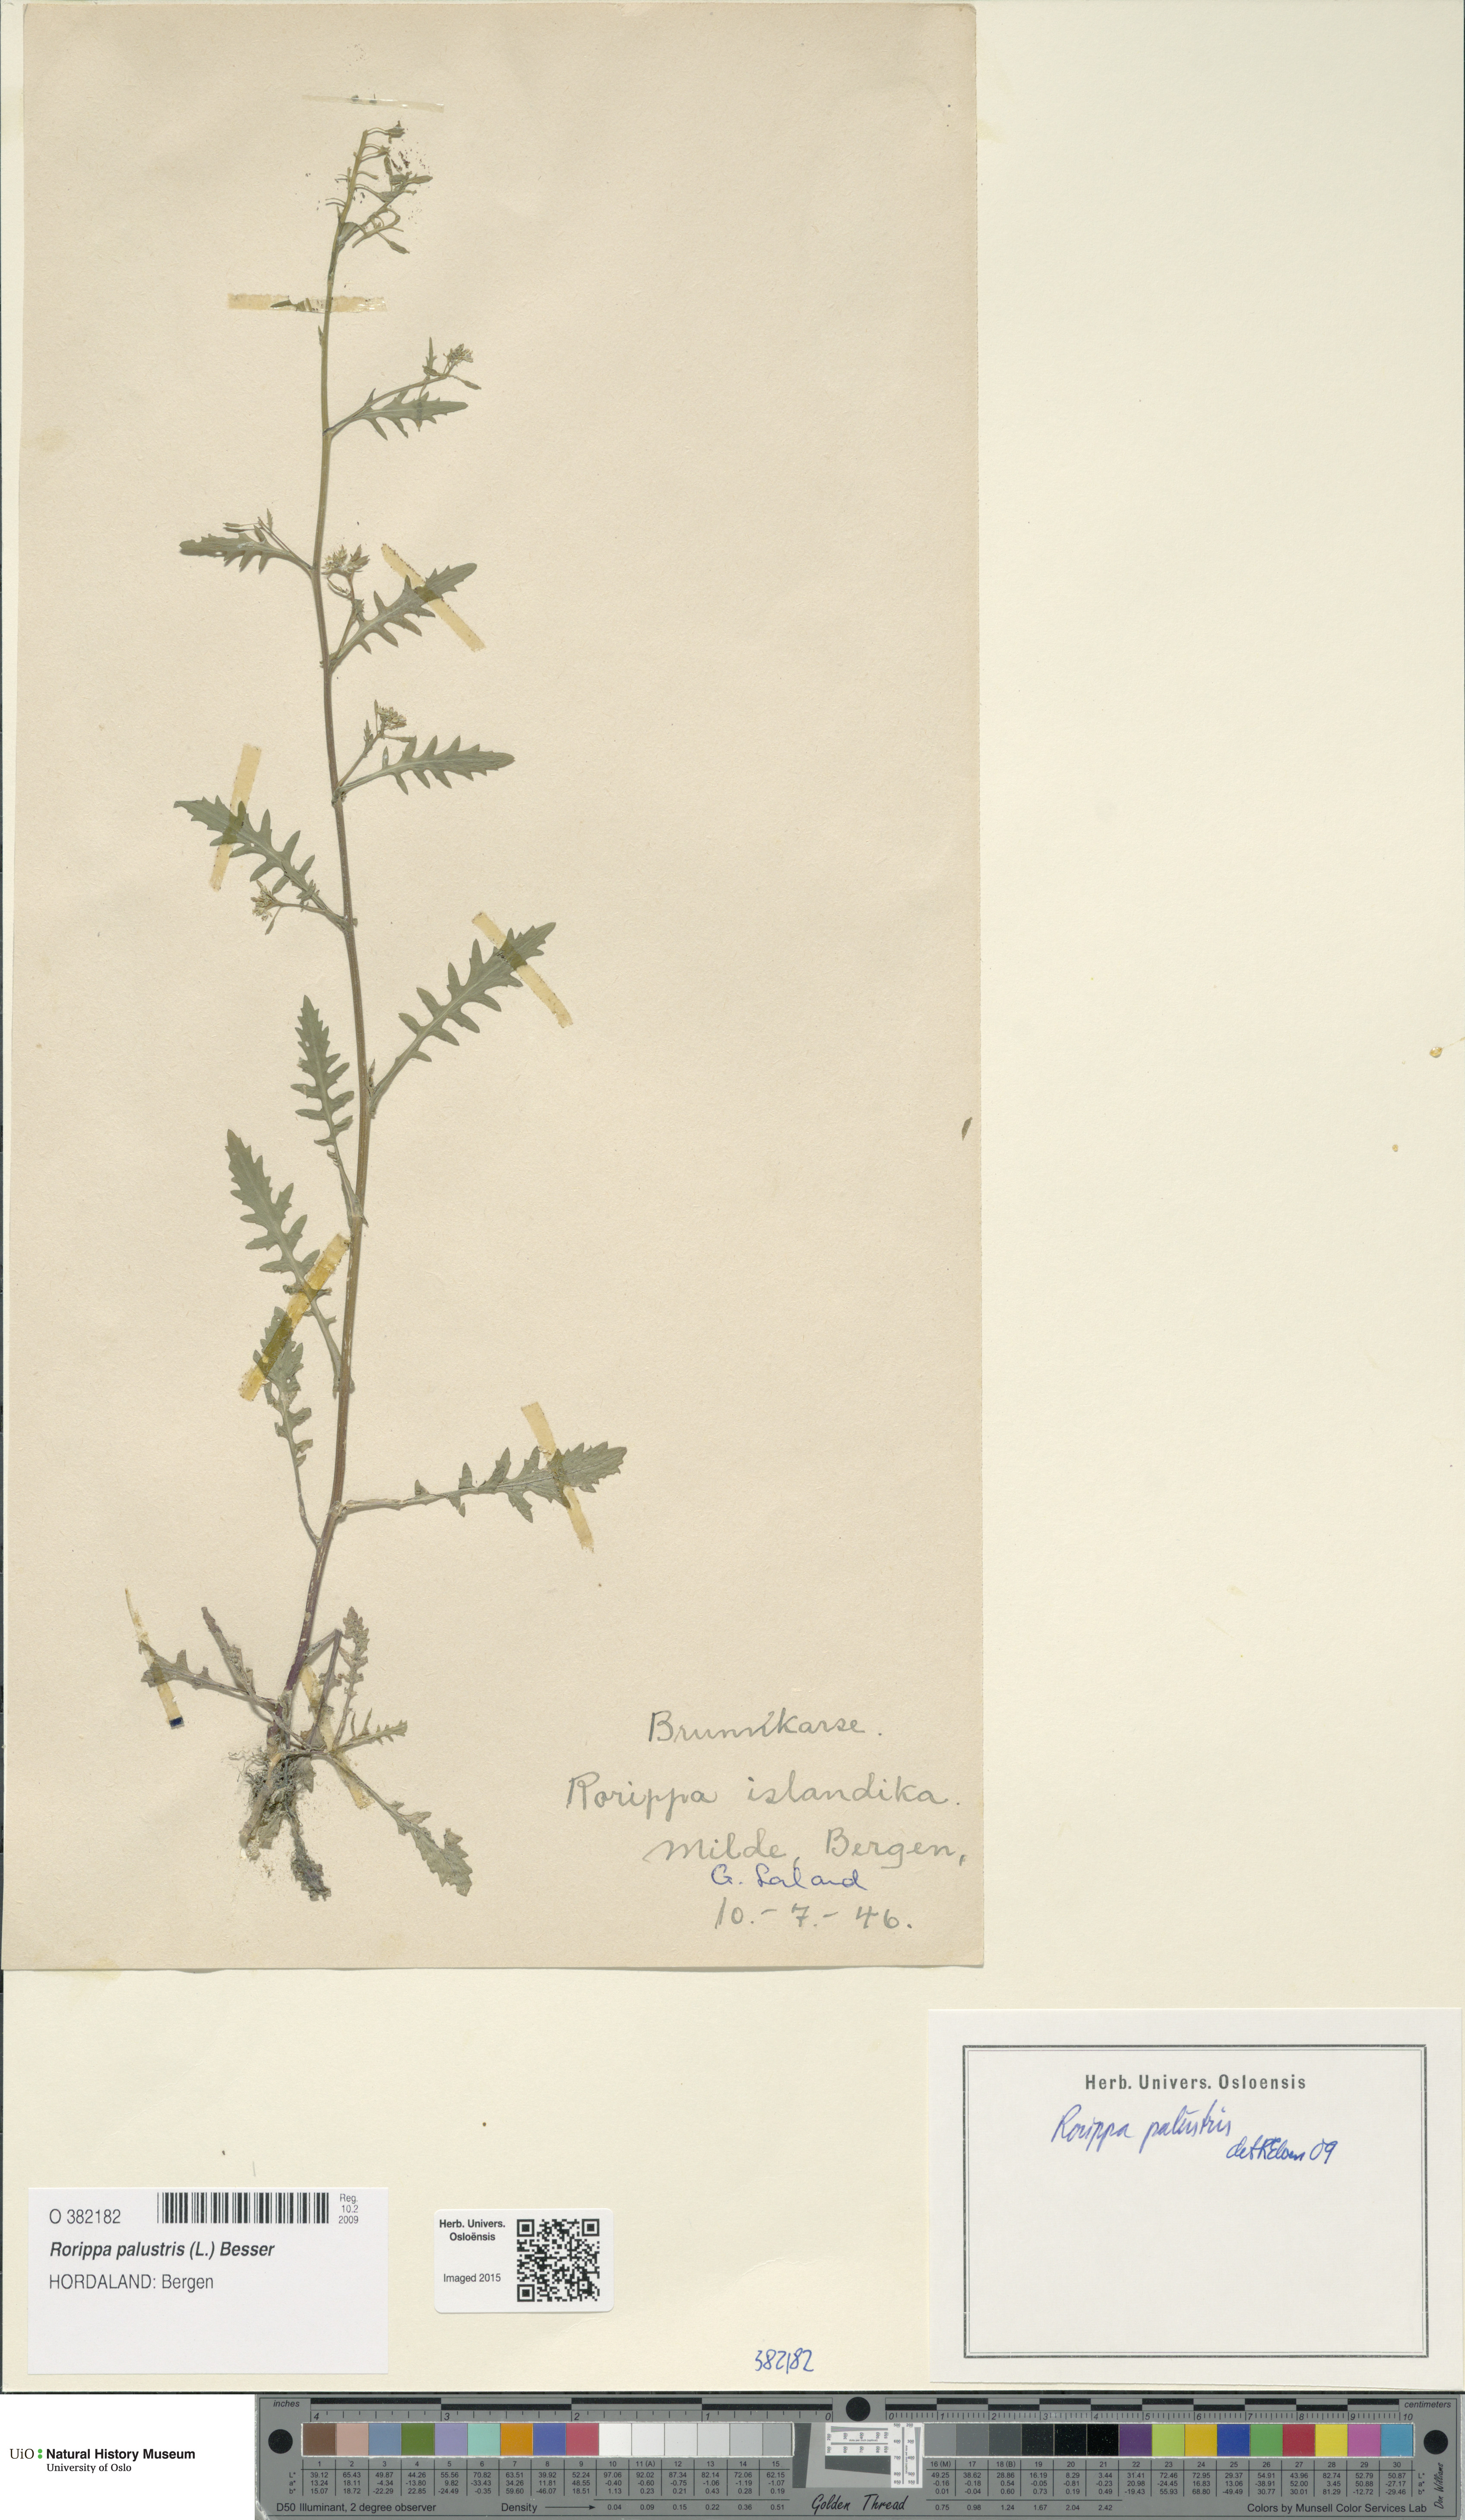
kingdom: Plantae
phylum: Tracheophyta
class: Magnoliopsida
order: Brassicales
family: Brassicaceae
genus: Rorippa
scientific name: Rorippa palustris
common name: Marsh yellow-cress
